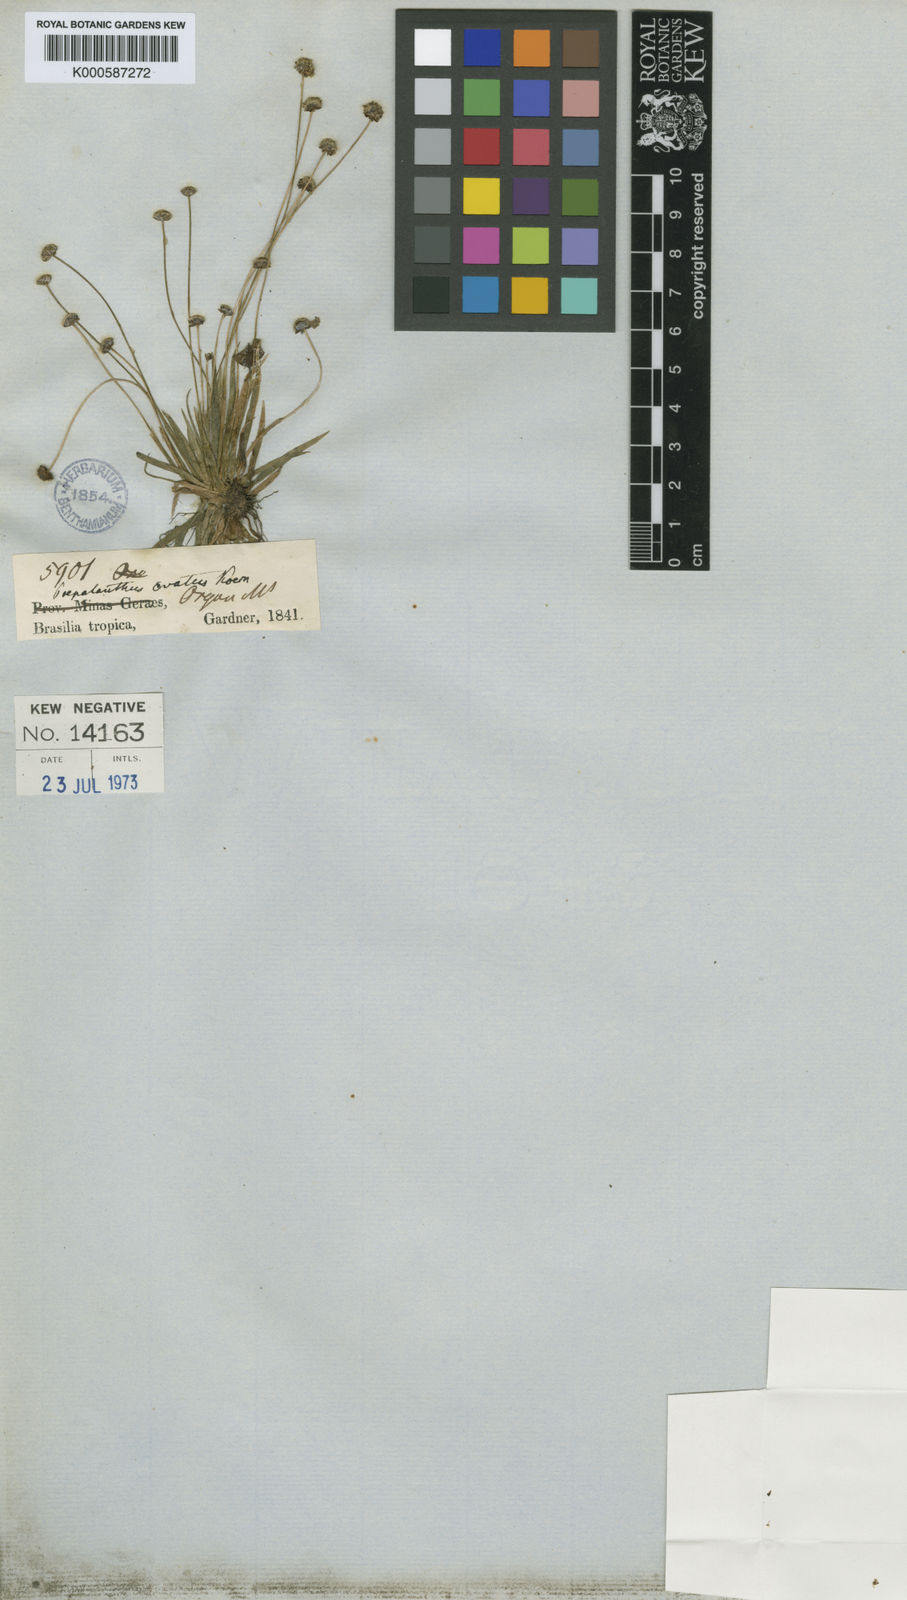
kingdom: Plantae
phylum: Tracheophyta
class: Liliopsida
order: Poales
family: Eriocaulaceae
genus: Paepalanthus
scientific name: Paepalanthus
